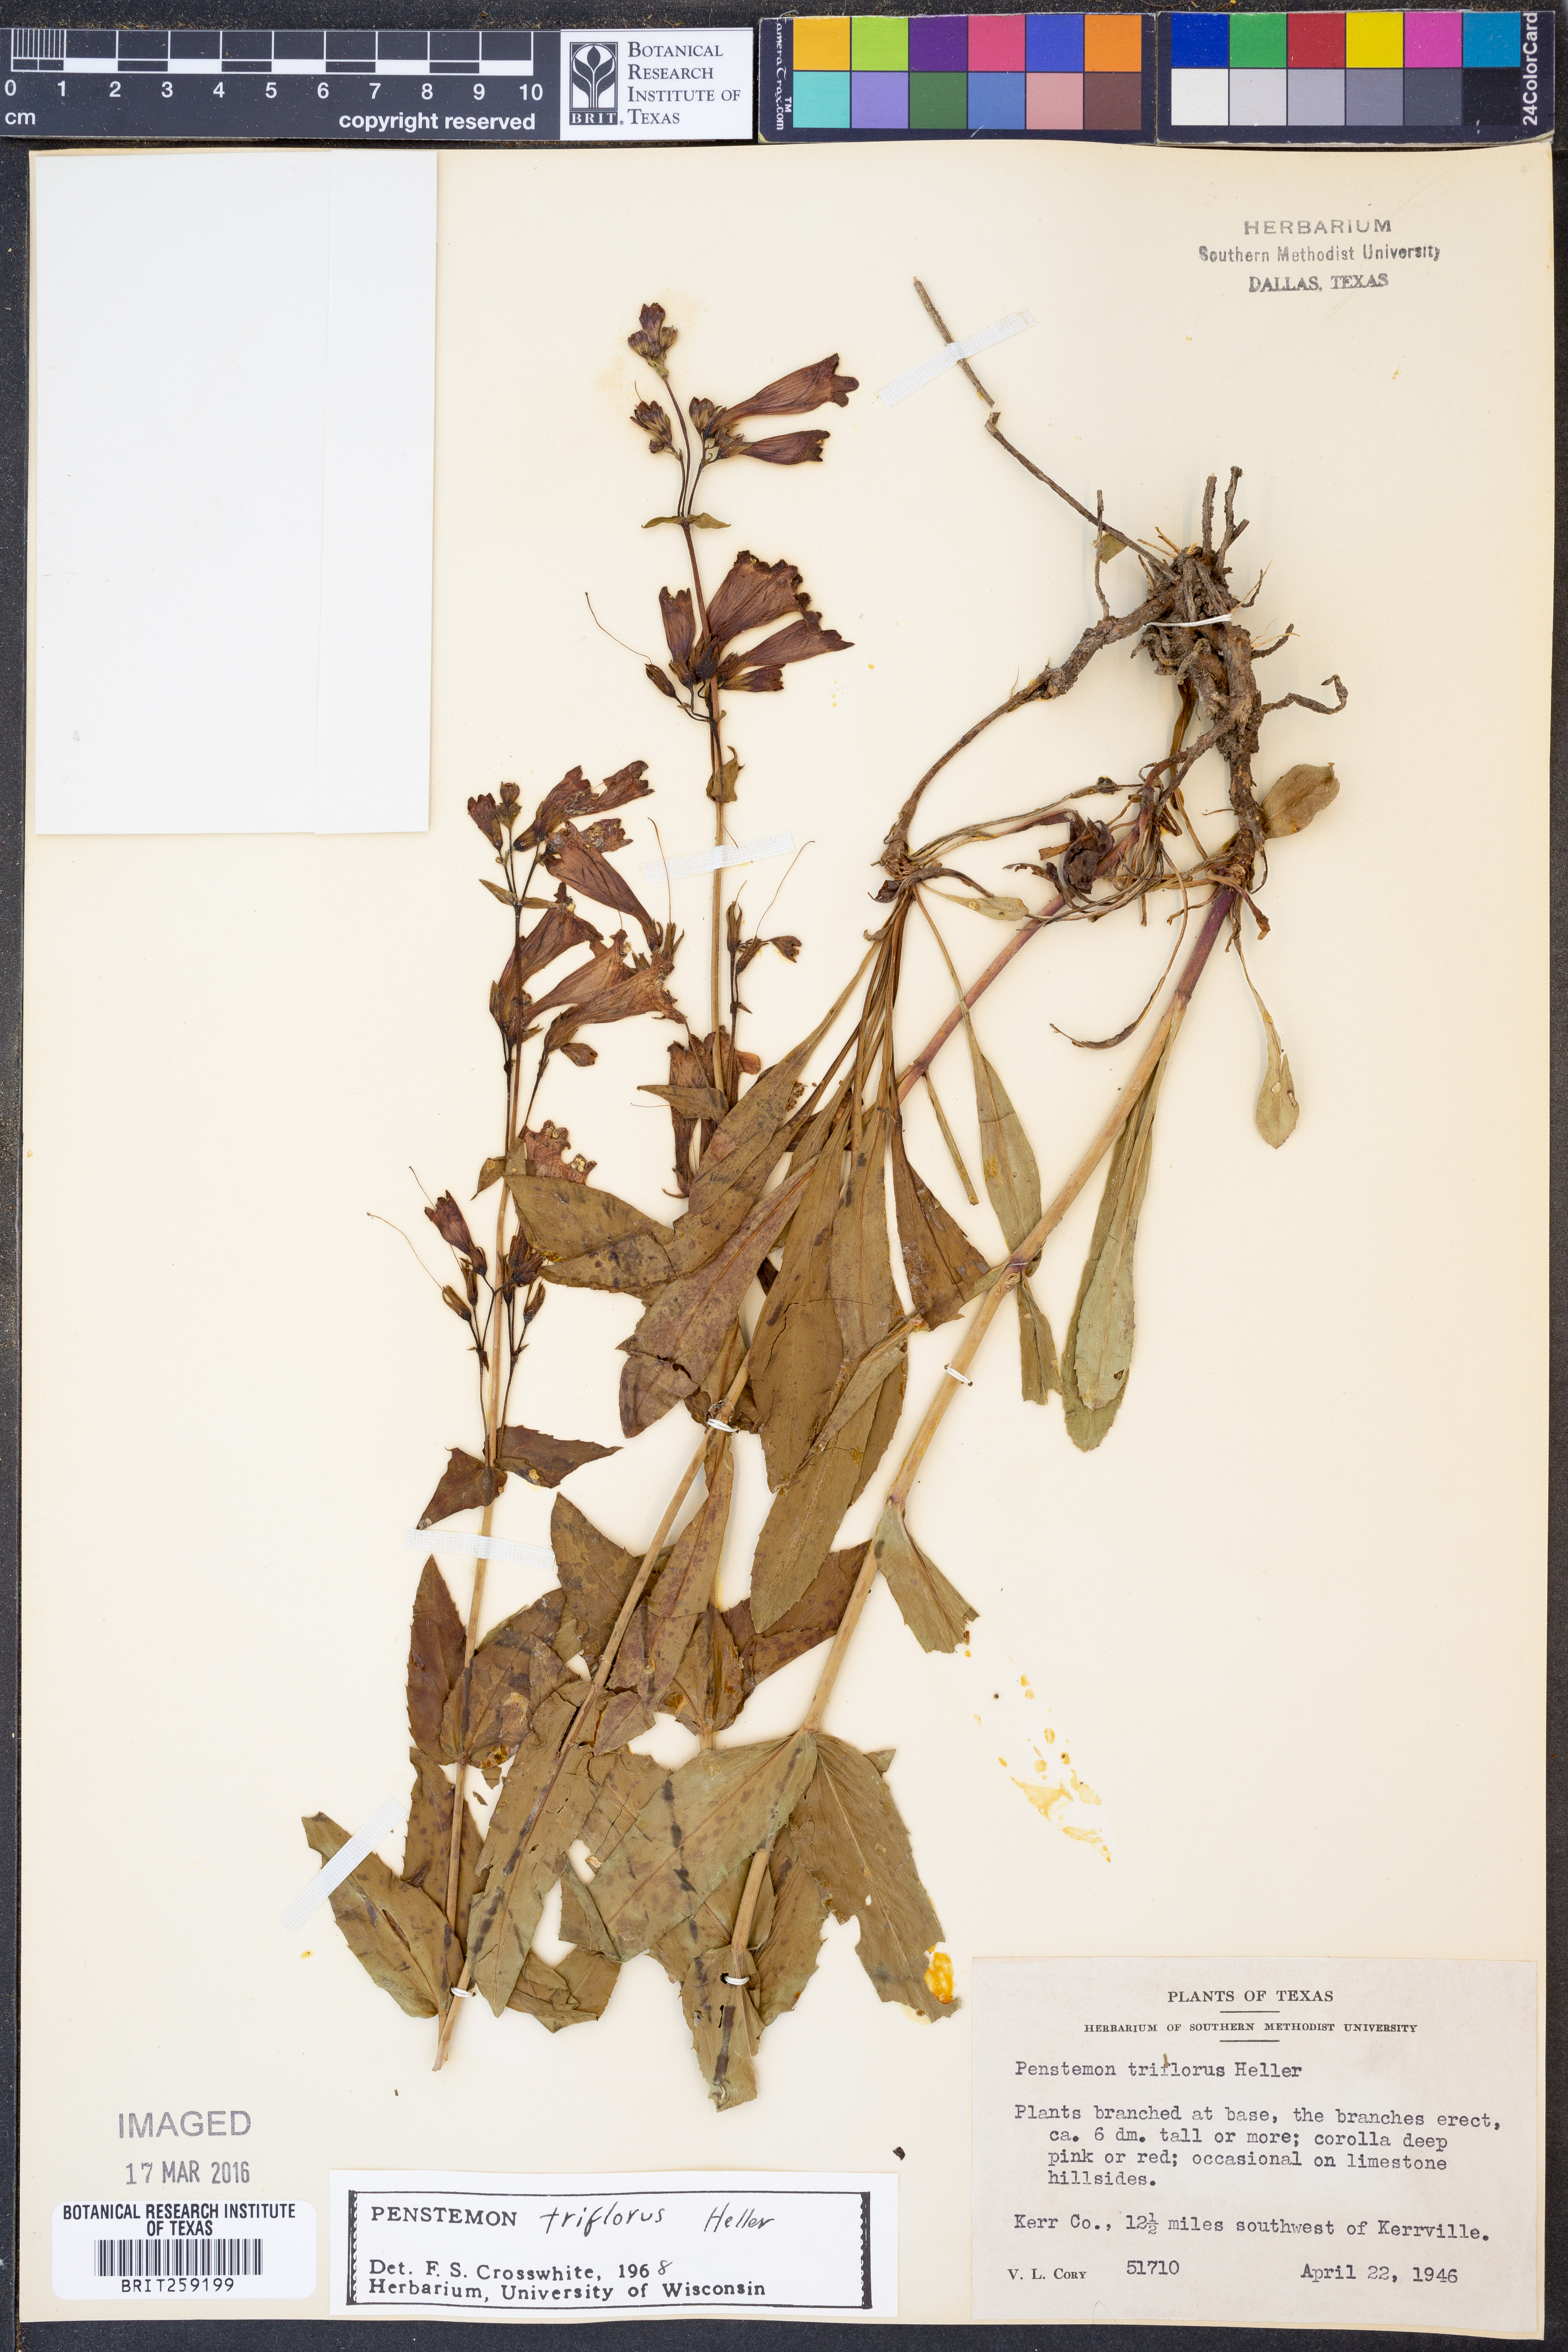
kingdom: Plantae
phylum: Tracheophyta
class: Magnoliopsida
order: Lamiales
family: Plantaginaceae
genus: Penstemon
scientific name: Penstemon triflorus
